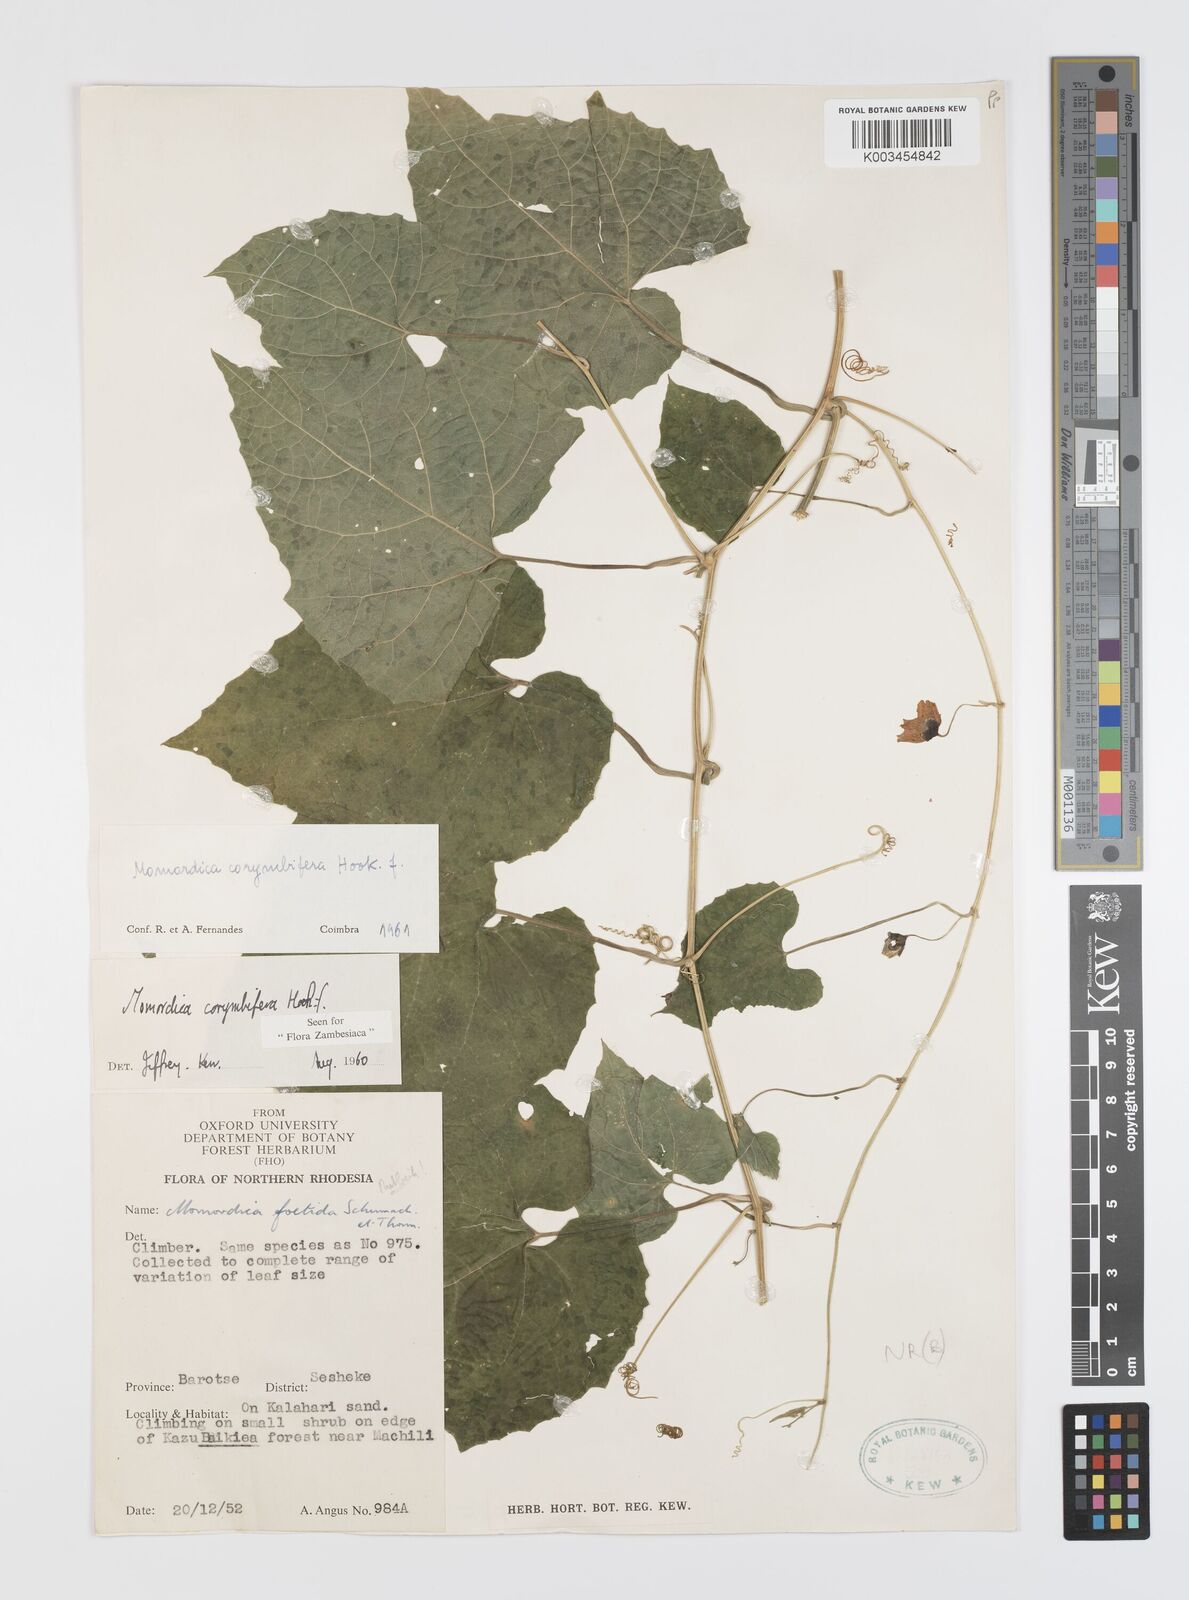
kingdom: Plantae
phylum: Tracheophyta
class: Magnoliopsida
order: Cucurbitales
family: Cucurbitaceae
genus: Momordica
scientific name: Momordica corymbifera
